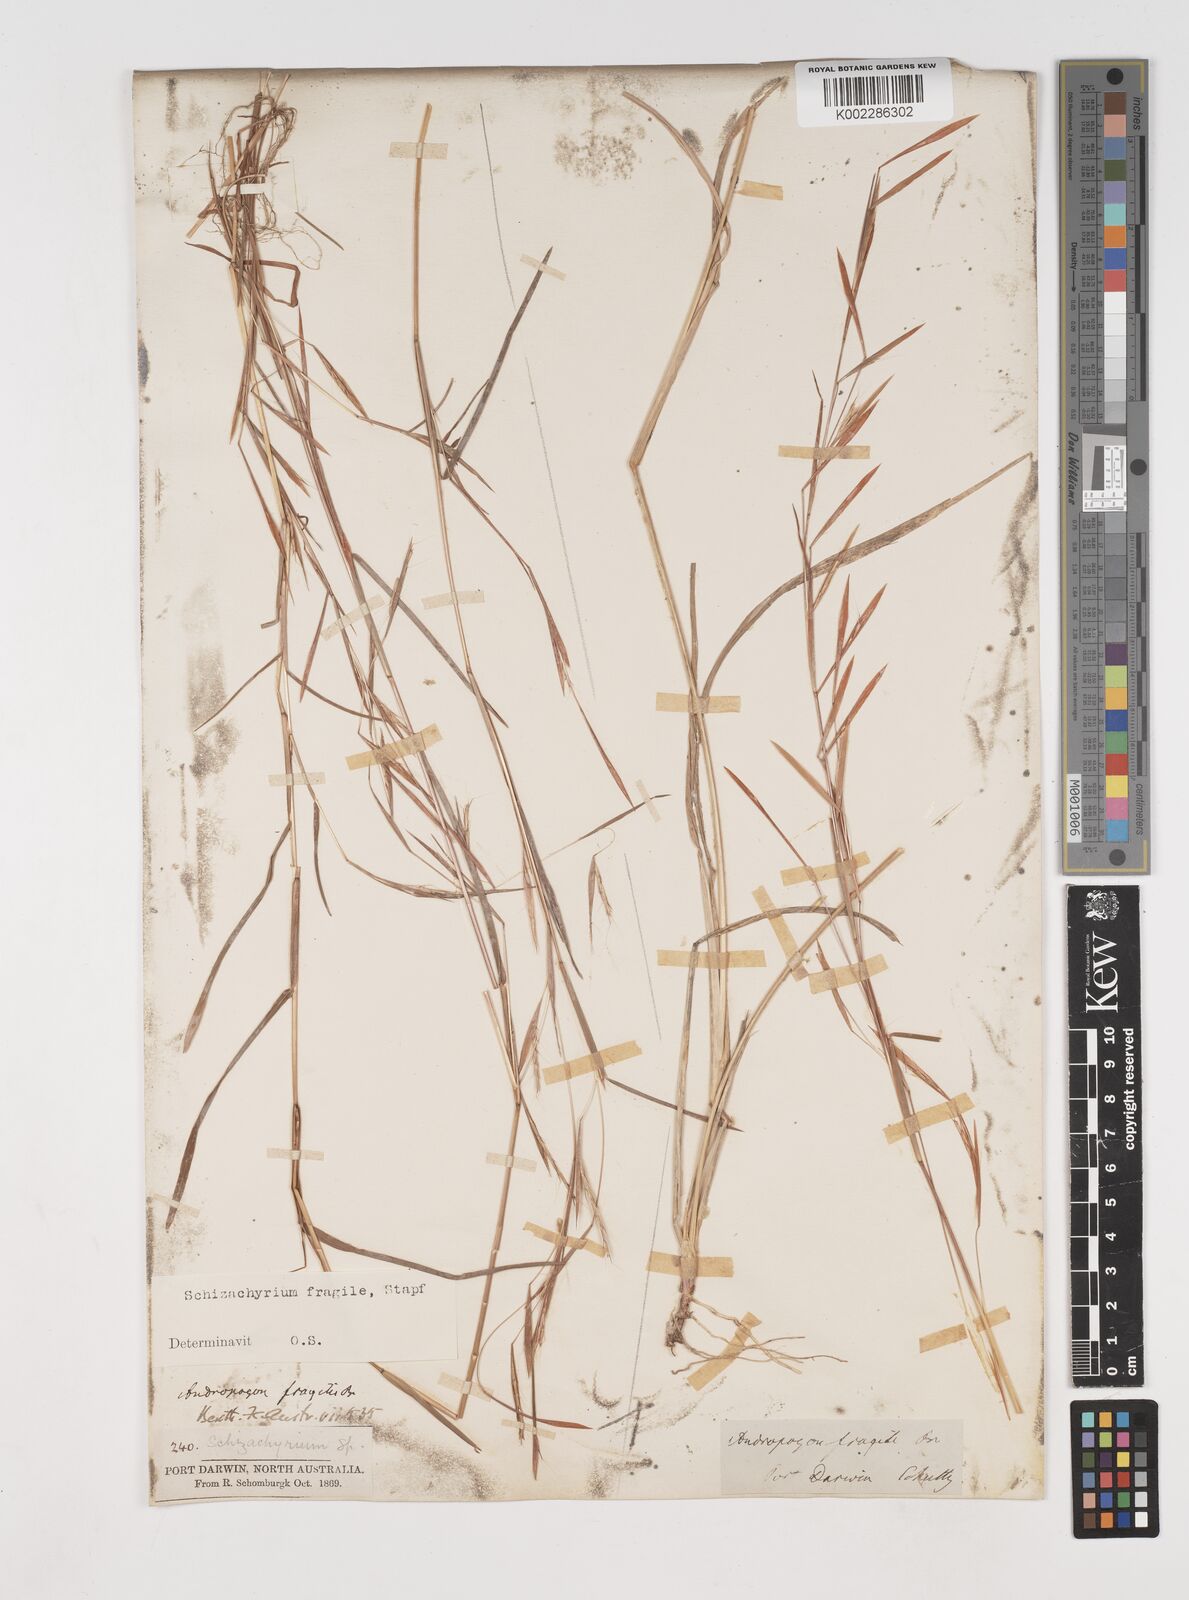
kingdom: Plantae
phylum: Tracheophyta
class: Liliopsida
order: Poales
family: Poaceae
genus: Schizachyrium
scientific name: Schizachyrium pseudeulalia
